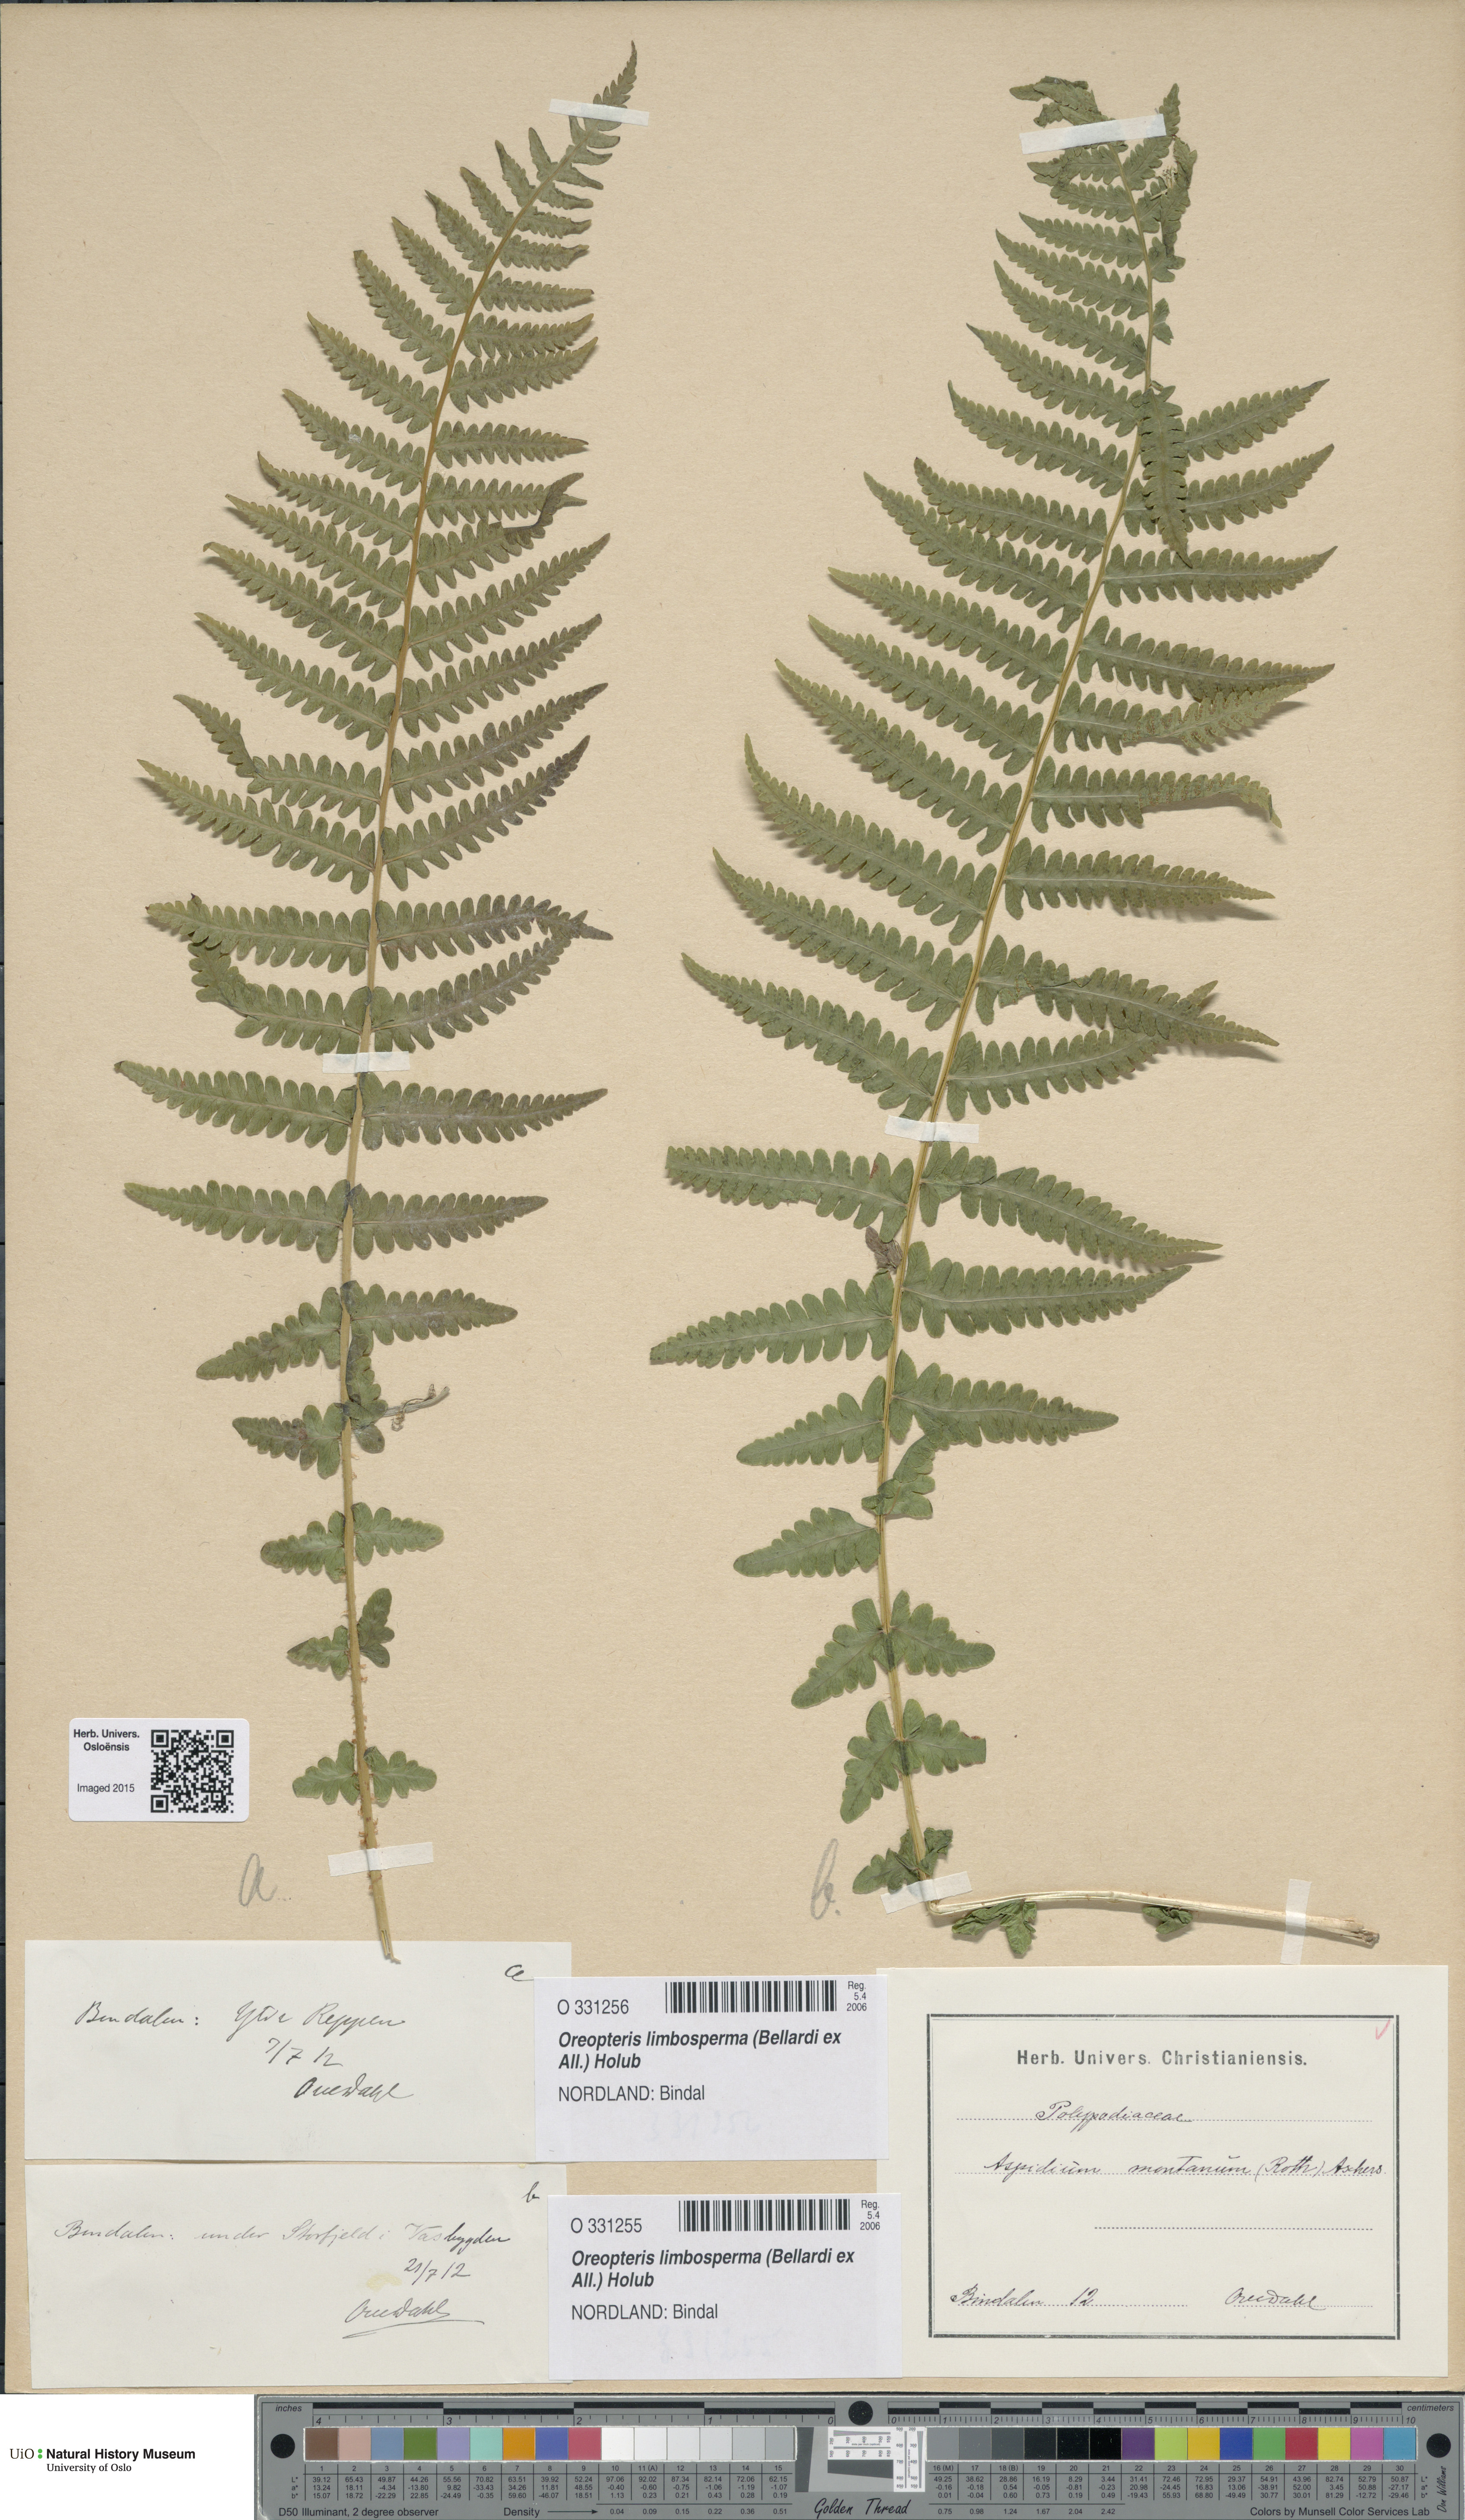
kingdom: Plantae
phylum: Tracheophyta
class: Polypodiopsida
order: Polypodiales
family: Thelypteridaceae
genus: Oreopteris
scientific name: Oreopteris limbosperma
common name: Lemon-scented fern
